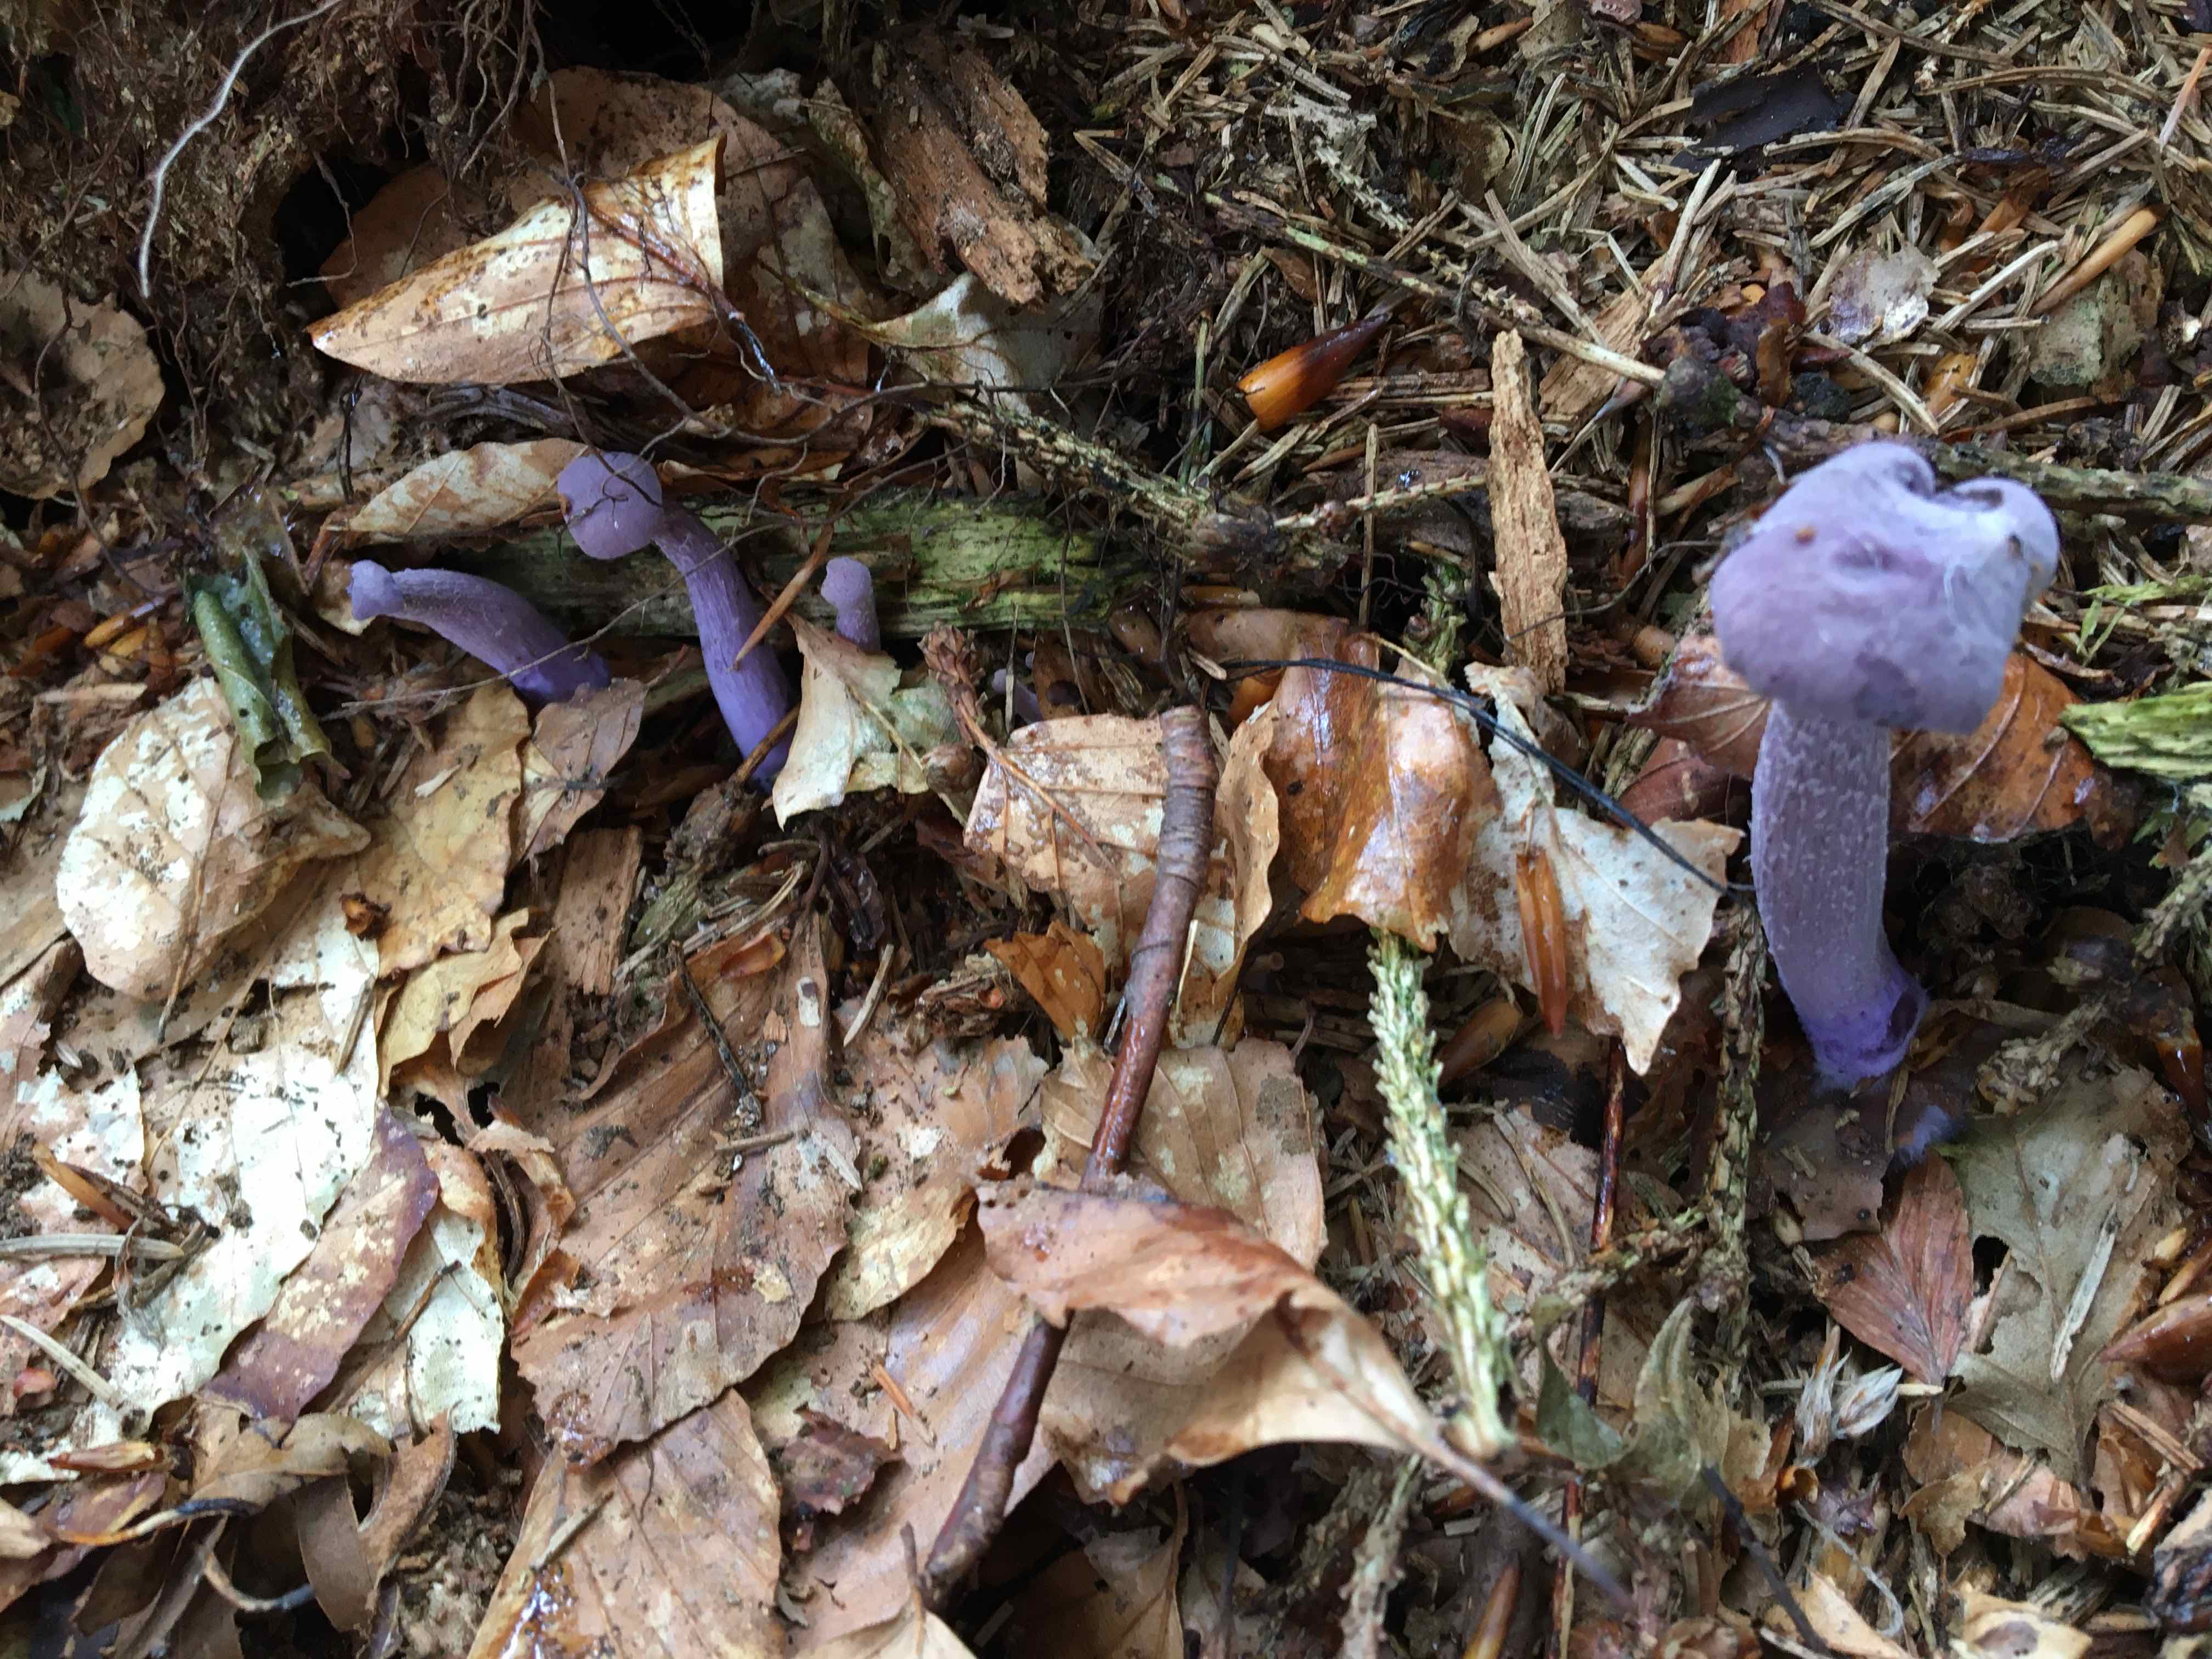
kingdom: Fungi
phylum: Basidiomycota
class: Agaricomycetes
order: Agaricales
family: Hydnangiaceae
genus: Laccaria
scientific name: Laccaria amethystina
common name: violet ametysthat
